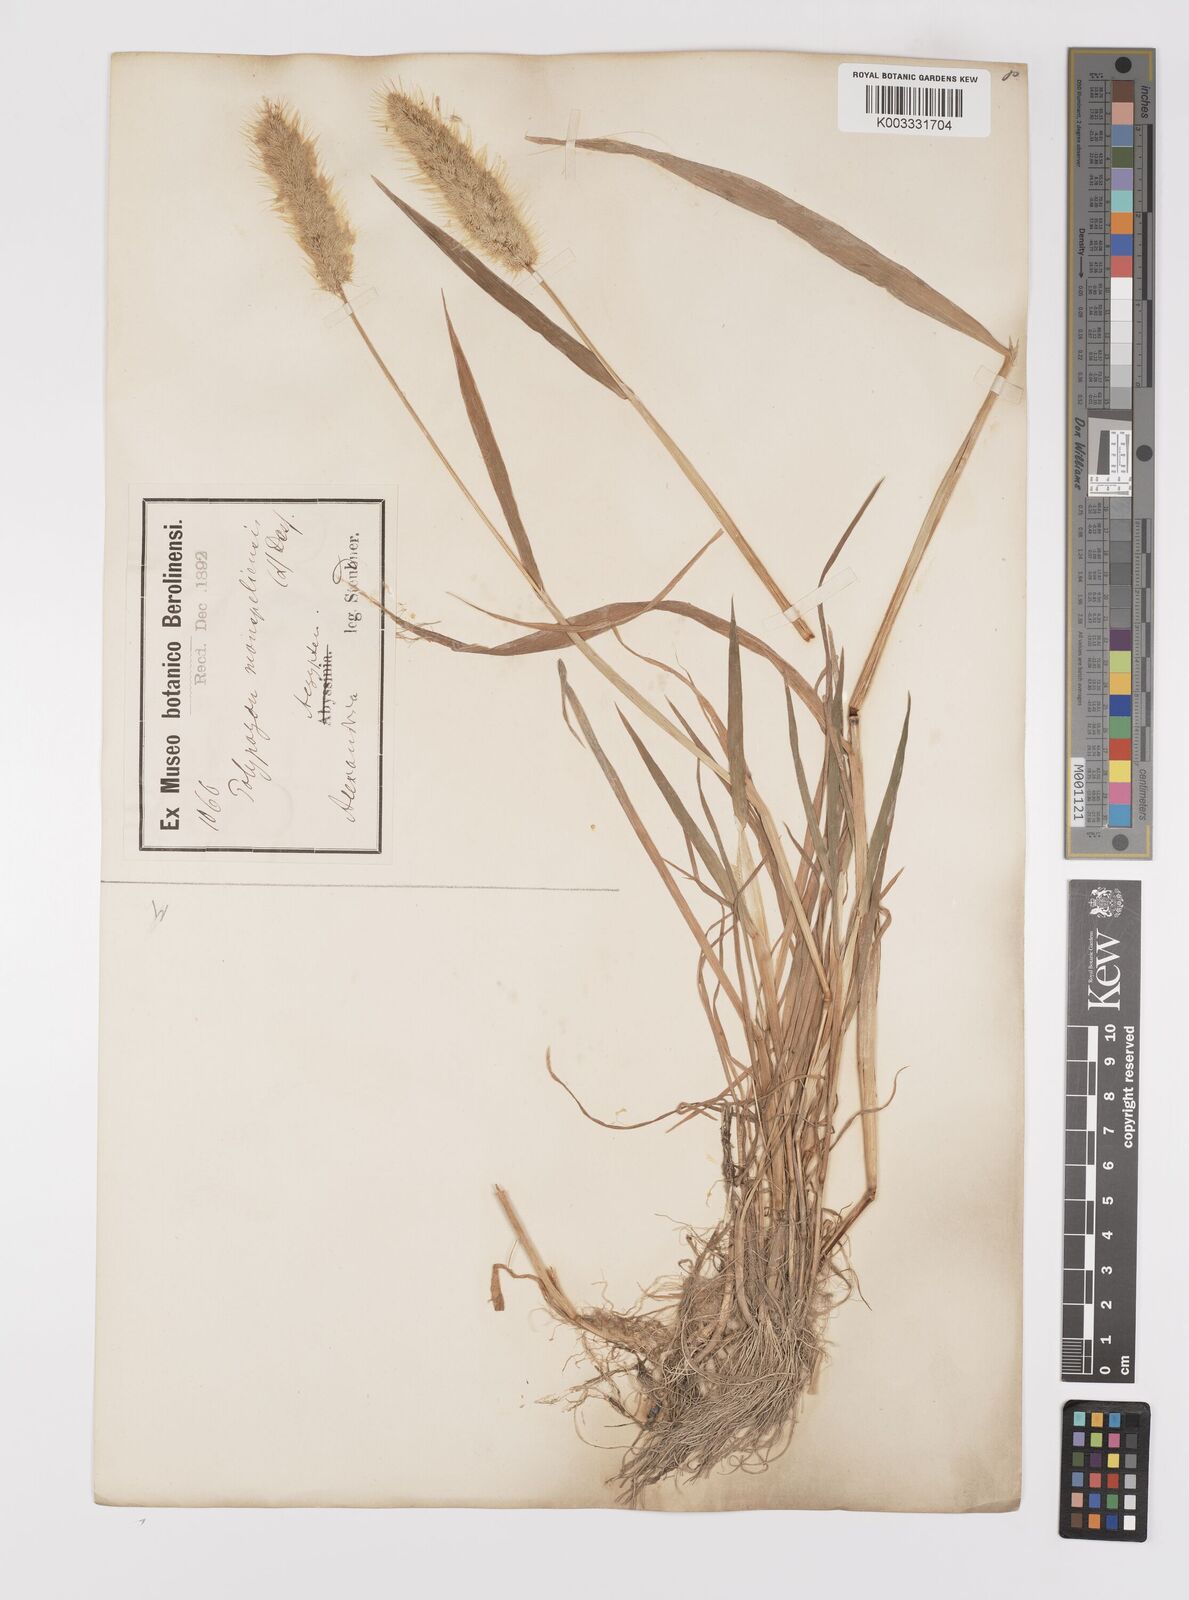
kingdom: Plantae
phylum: Tracheophyta
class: Liliopsida
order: Poales
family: Poaceae
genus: Polypogon
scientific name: Polypogon monspeliensis
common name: Annual rabbitsfoot grass
